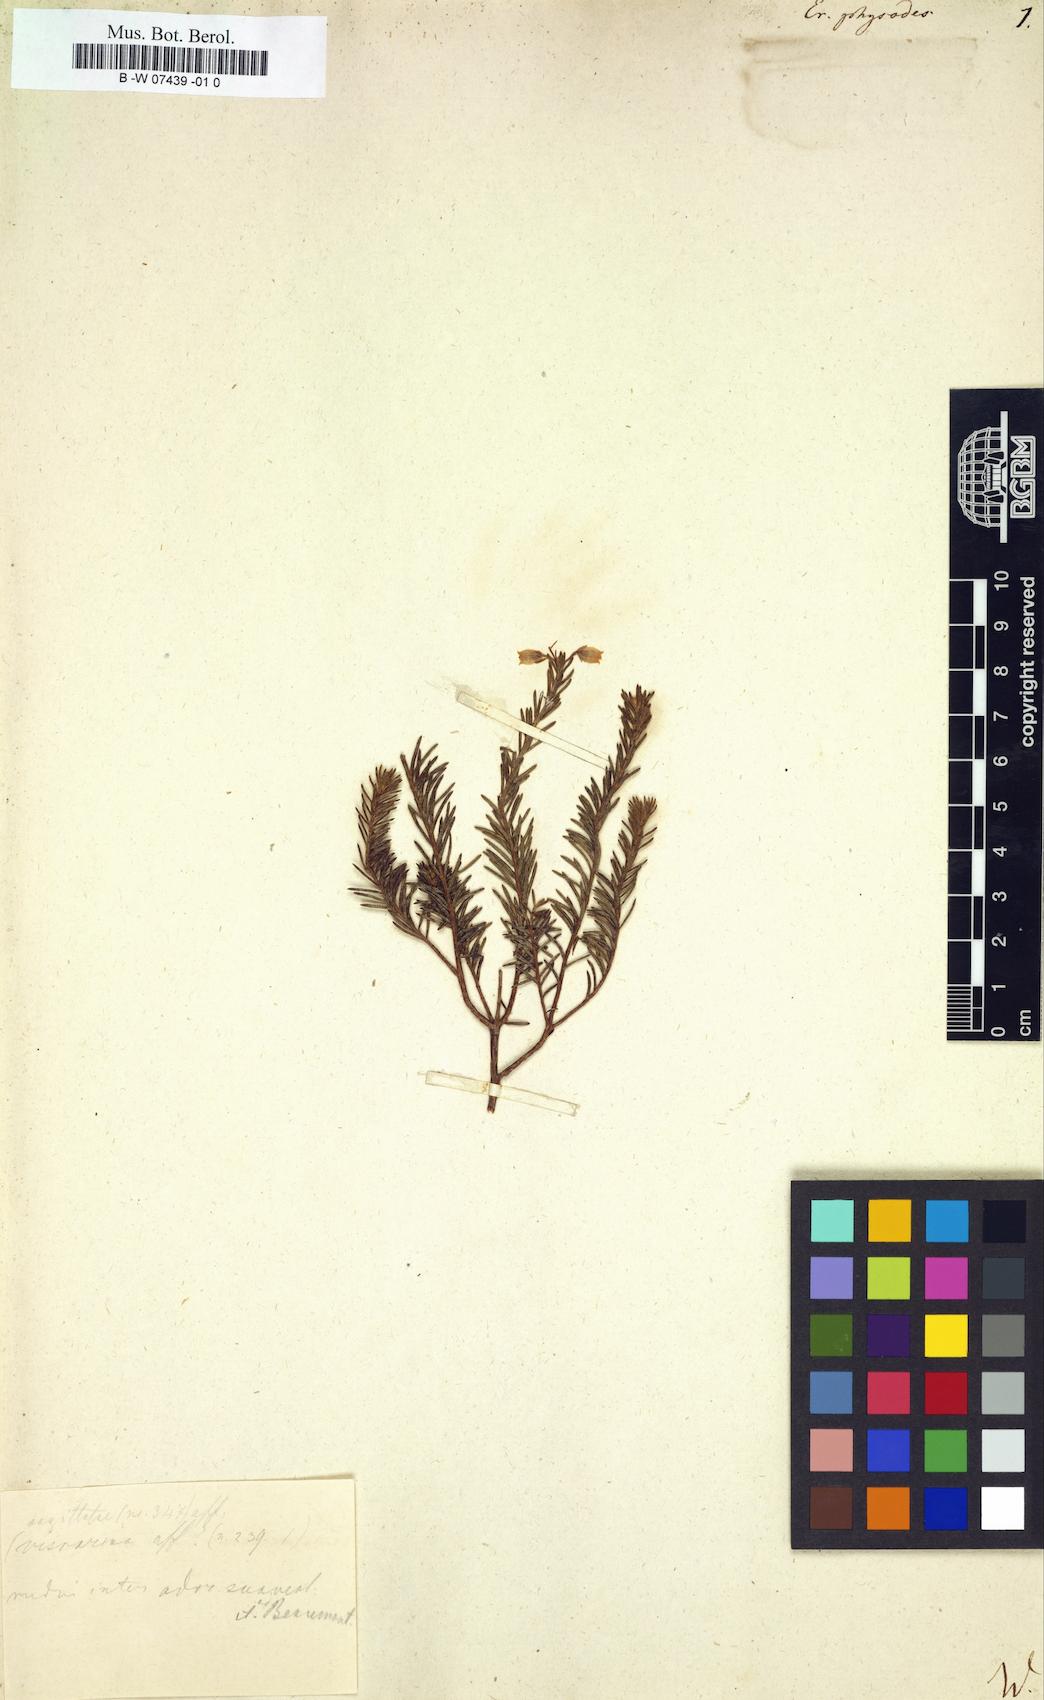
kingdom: Plantae
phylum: Tracheophyta
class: Magnoliopsida
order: Ericales
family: Ericaceae
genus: Erica
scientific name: Erica physodes
